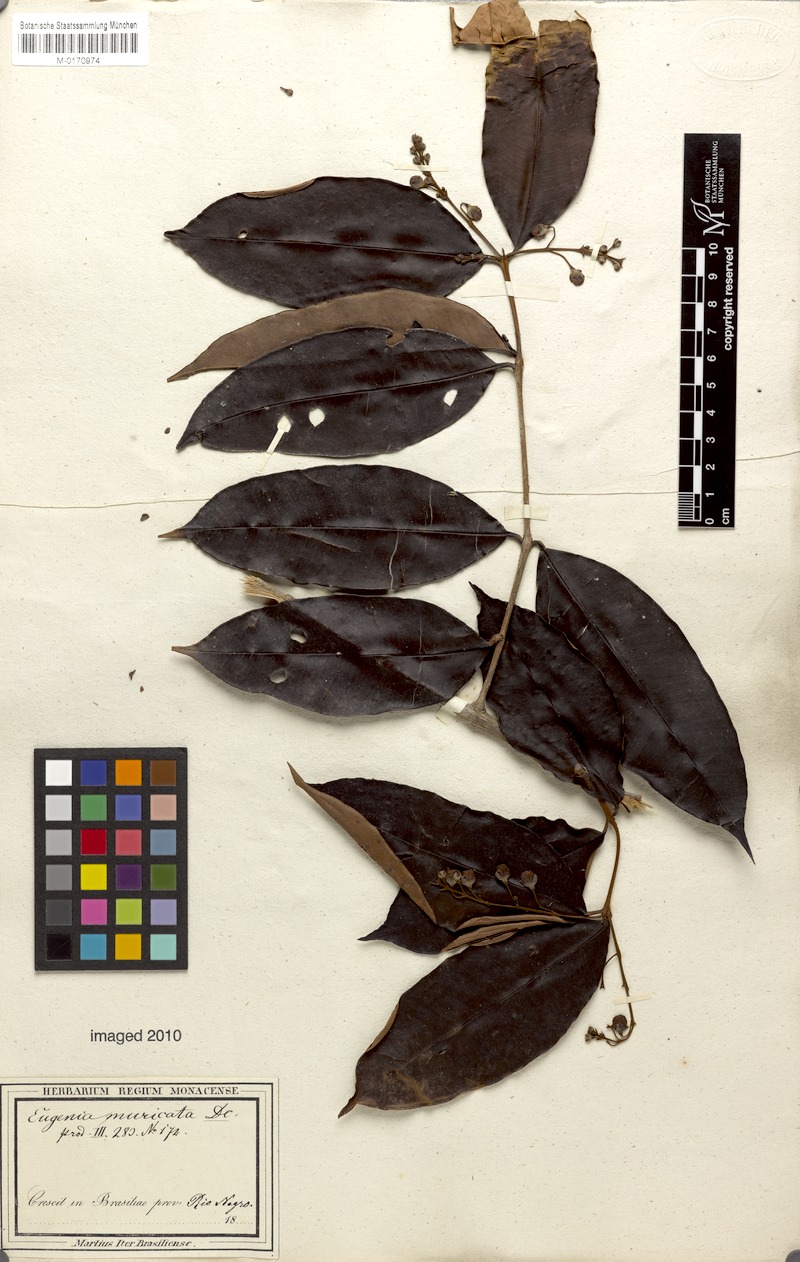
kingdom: Plantae
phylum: Tracheophyta
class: Magnoliopsida
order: Myrtales
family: Myrtaceae
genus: Eugenia
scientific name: Eugenia patens
